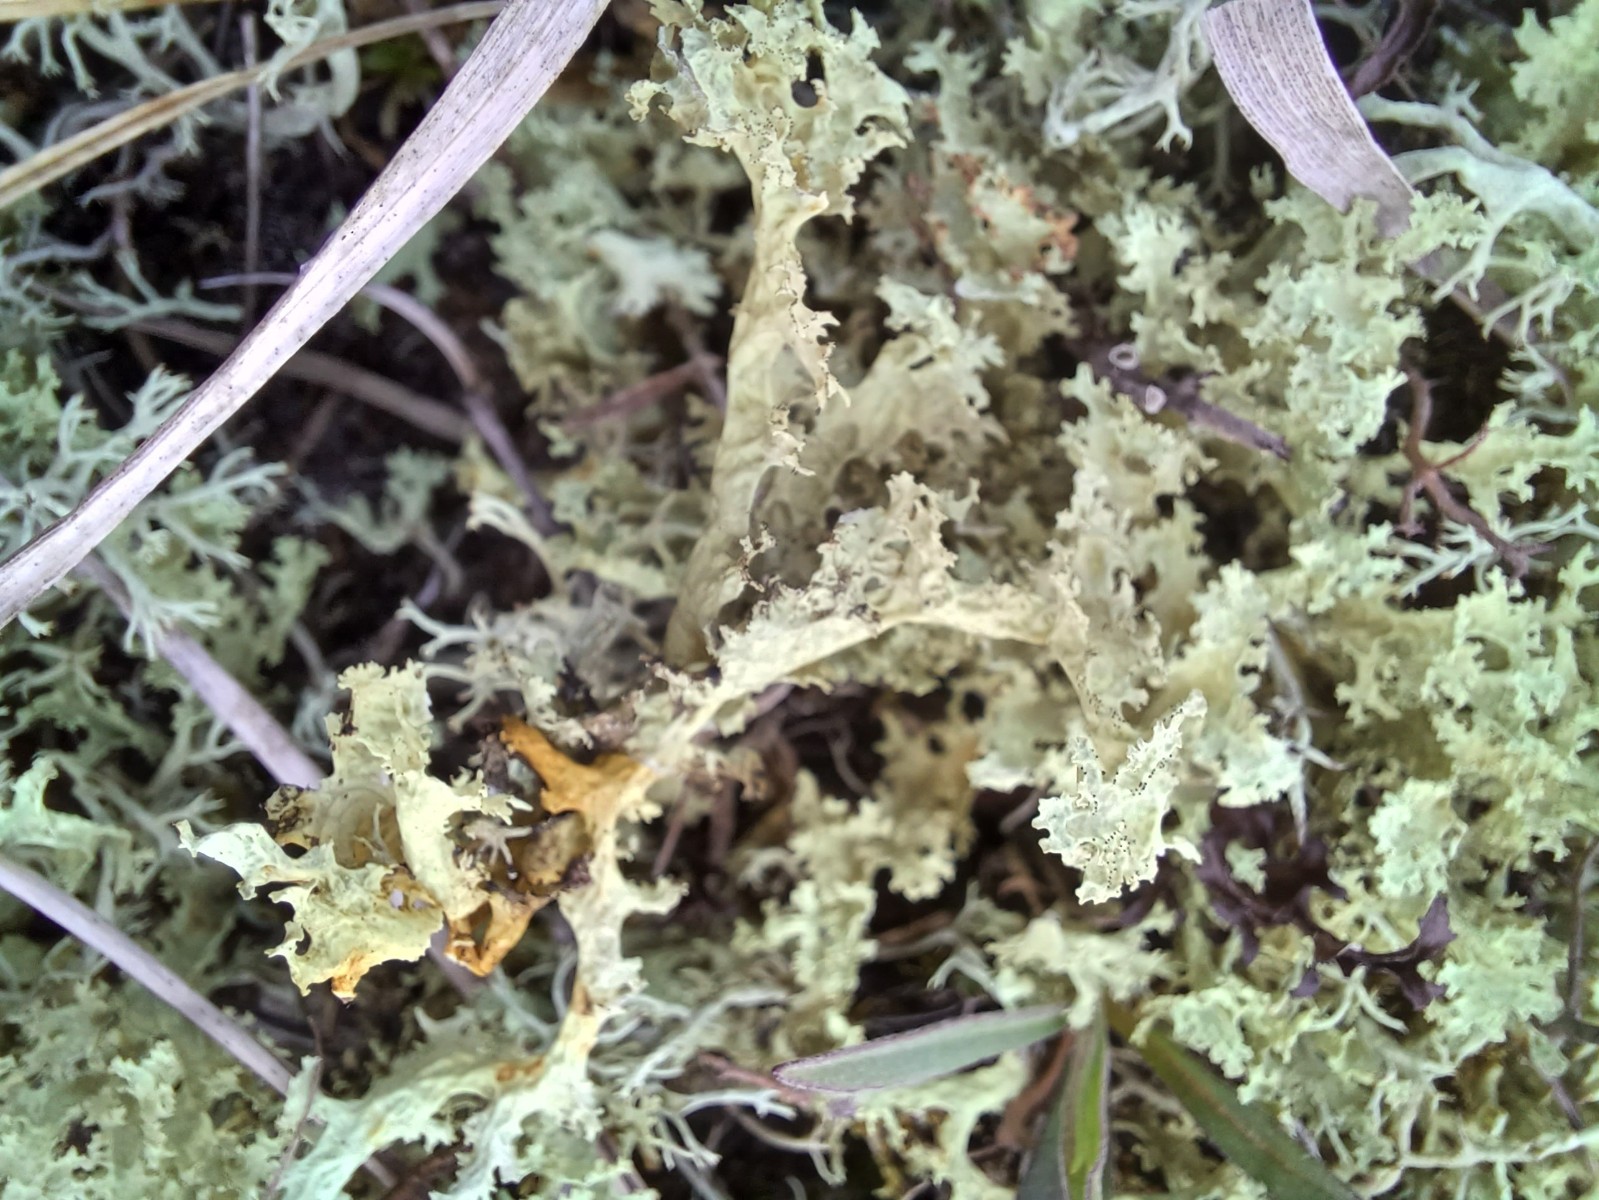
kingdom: Fungi
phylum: Ascomycota
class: Lecanoromycetes
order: Lecanorales
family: Parmeliaceae
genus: Nephromopsis
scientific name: Nephromopsis nivalis
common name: sne-kruslav
